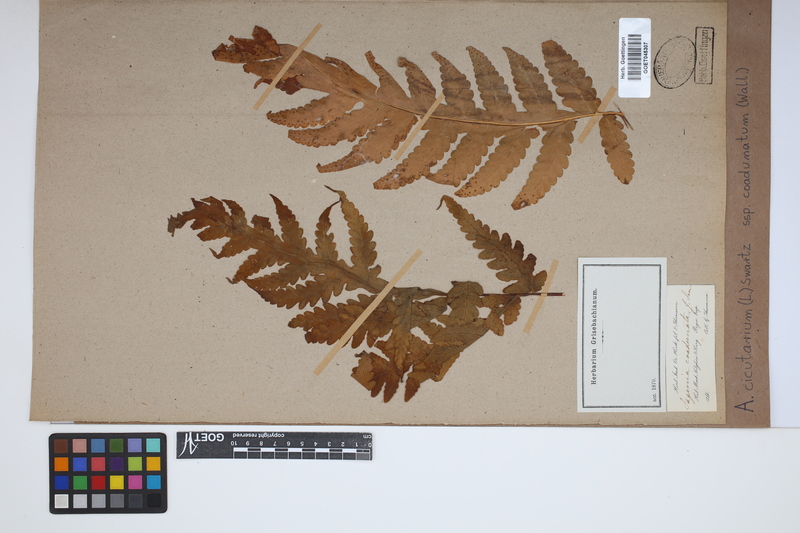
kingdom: Plantae
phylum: Tracheophyta
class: Polypodiopsida
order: Polypodiales
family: Tectariaceae
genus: Tectaria
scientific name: Tectaria cicutaria
